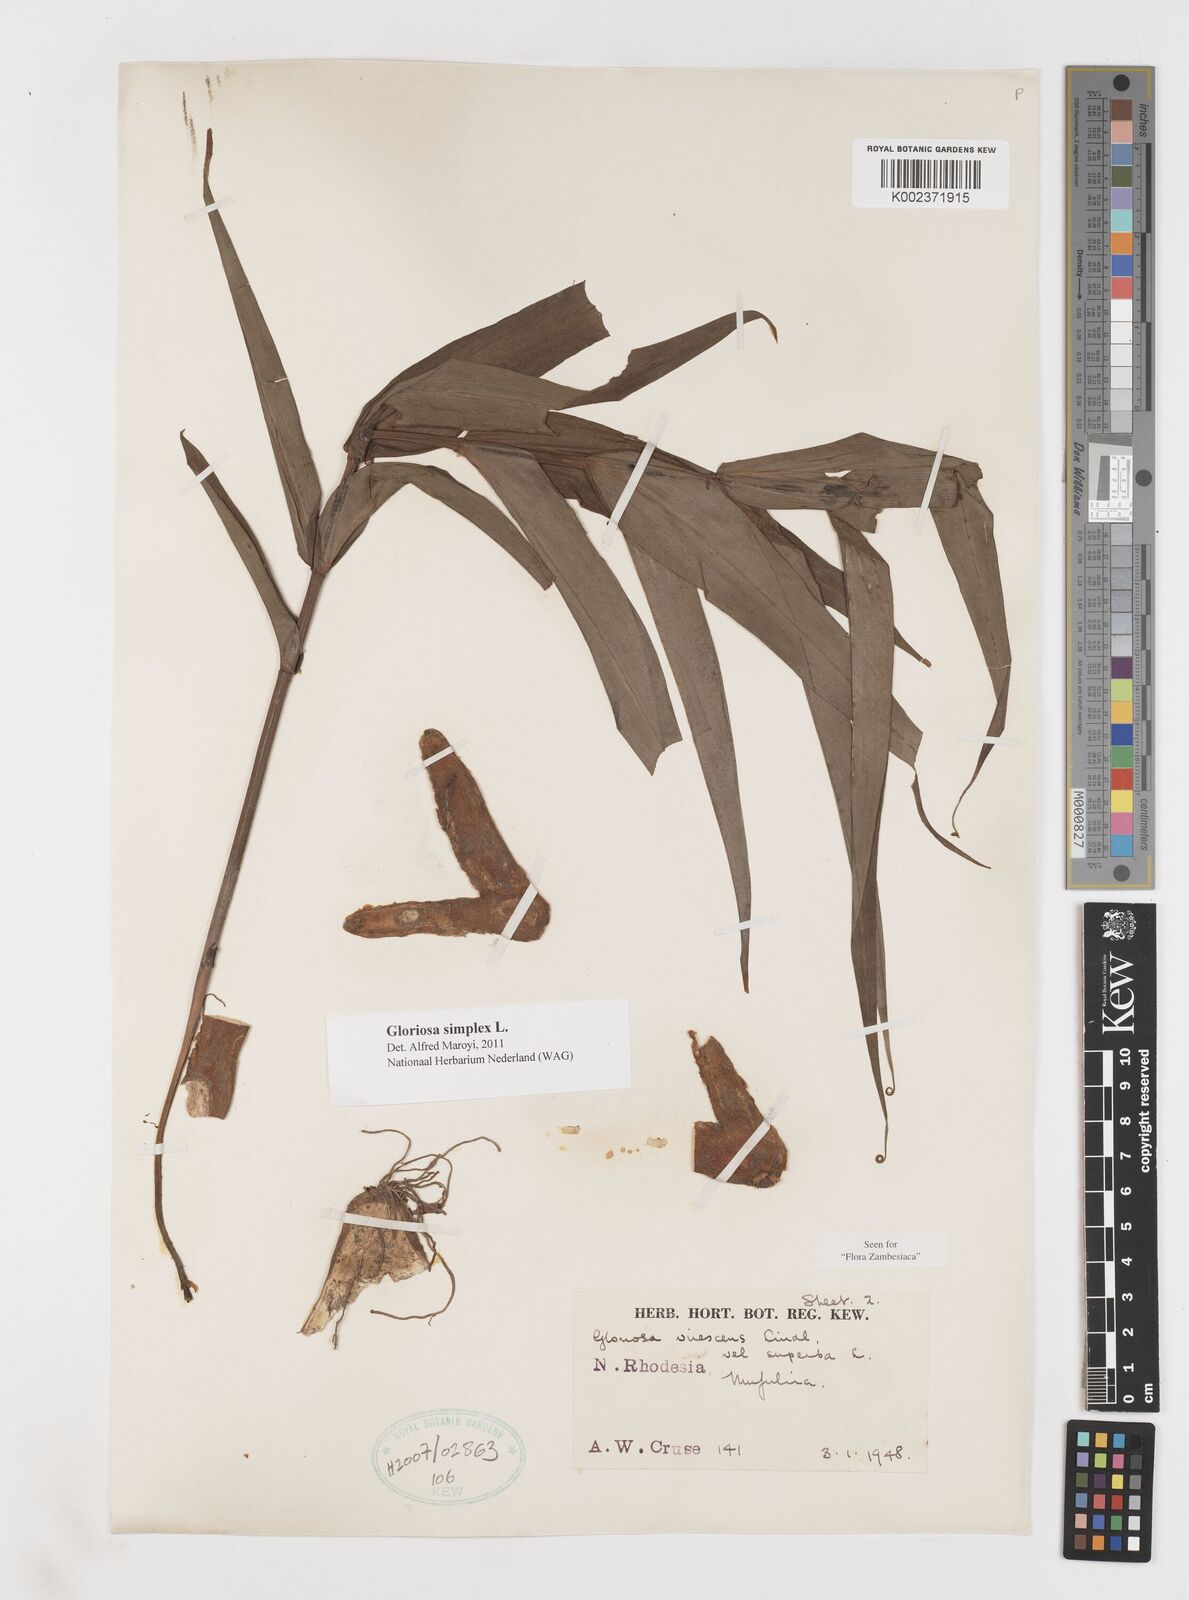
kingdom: Plantae
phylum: Tracheophyta
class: Liliopsida
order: Liliales
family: Colchicaceae
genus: Gloriosa
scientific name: Gloriosa simplex
